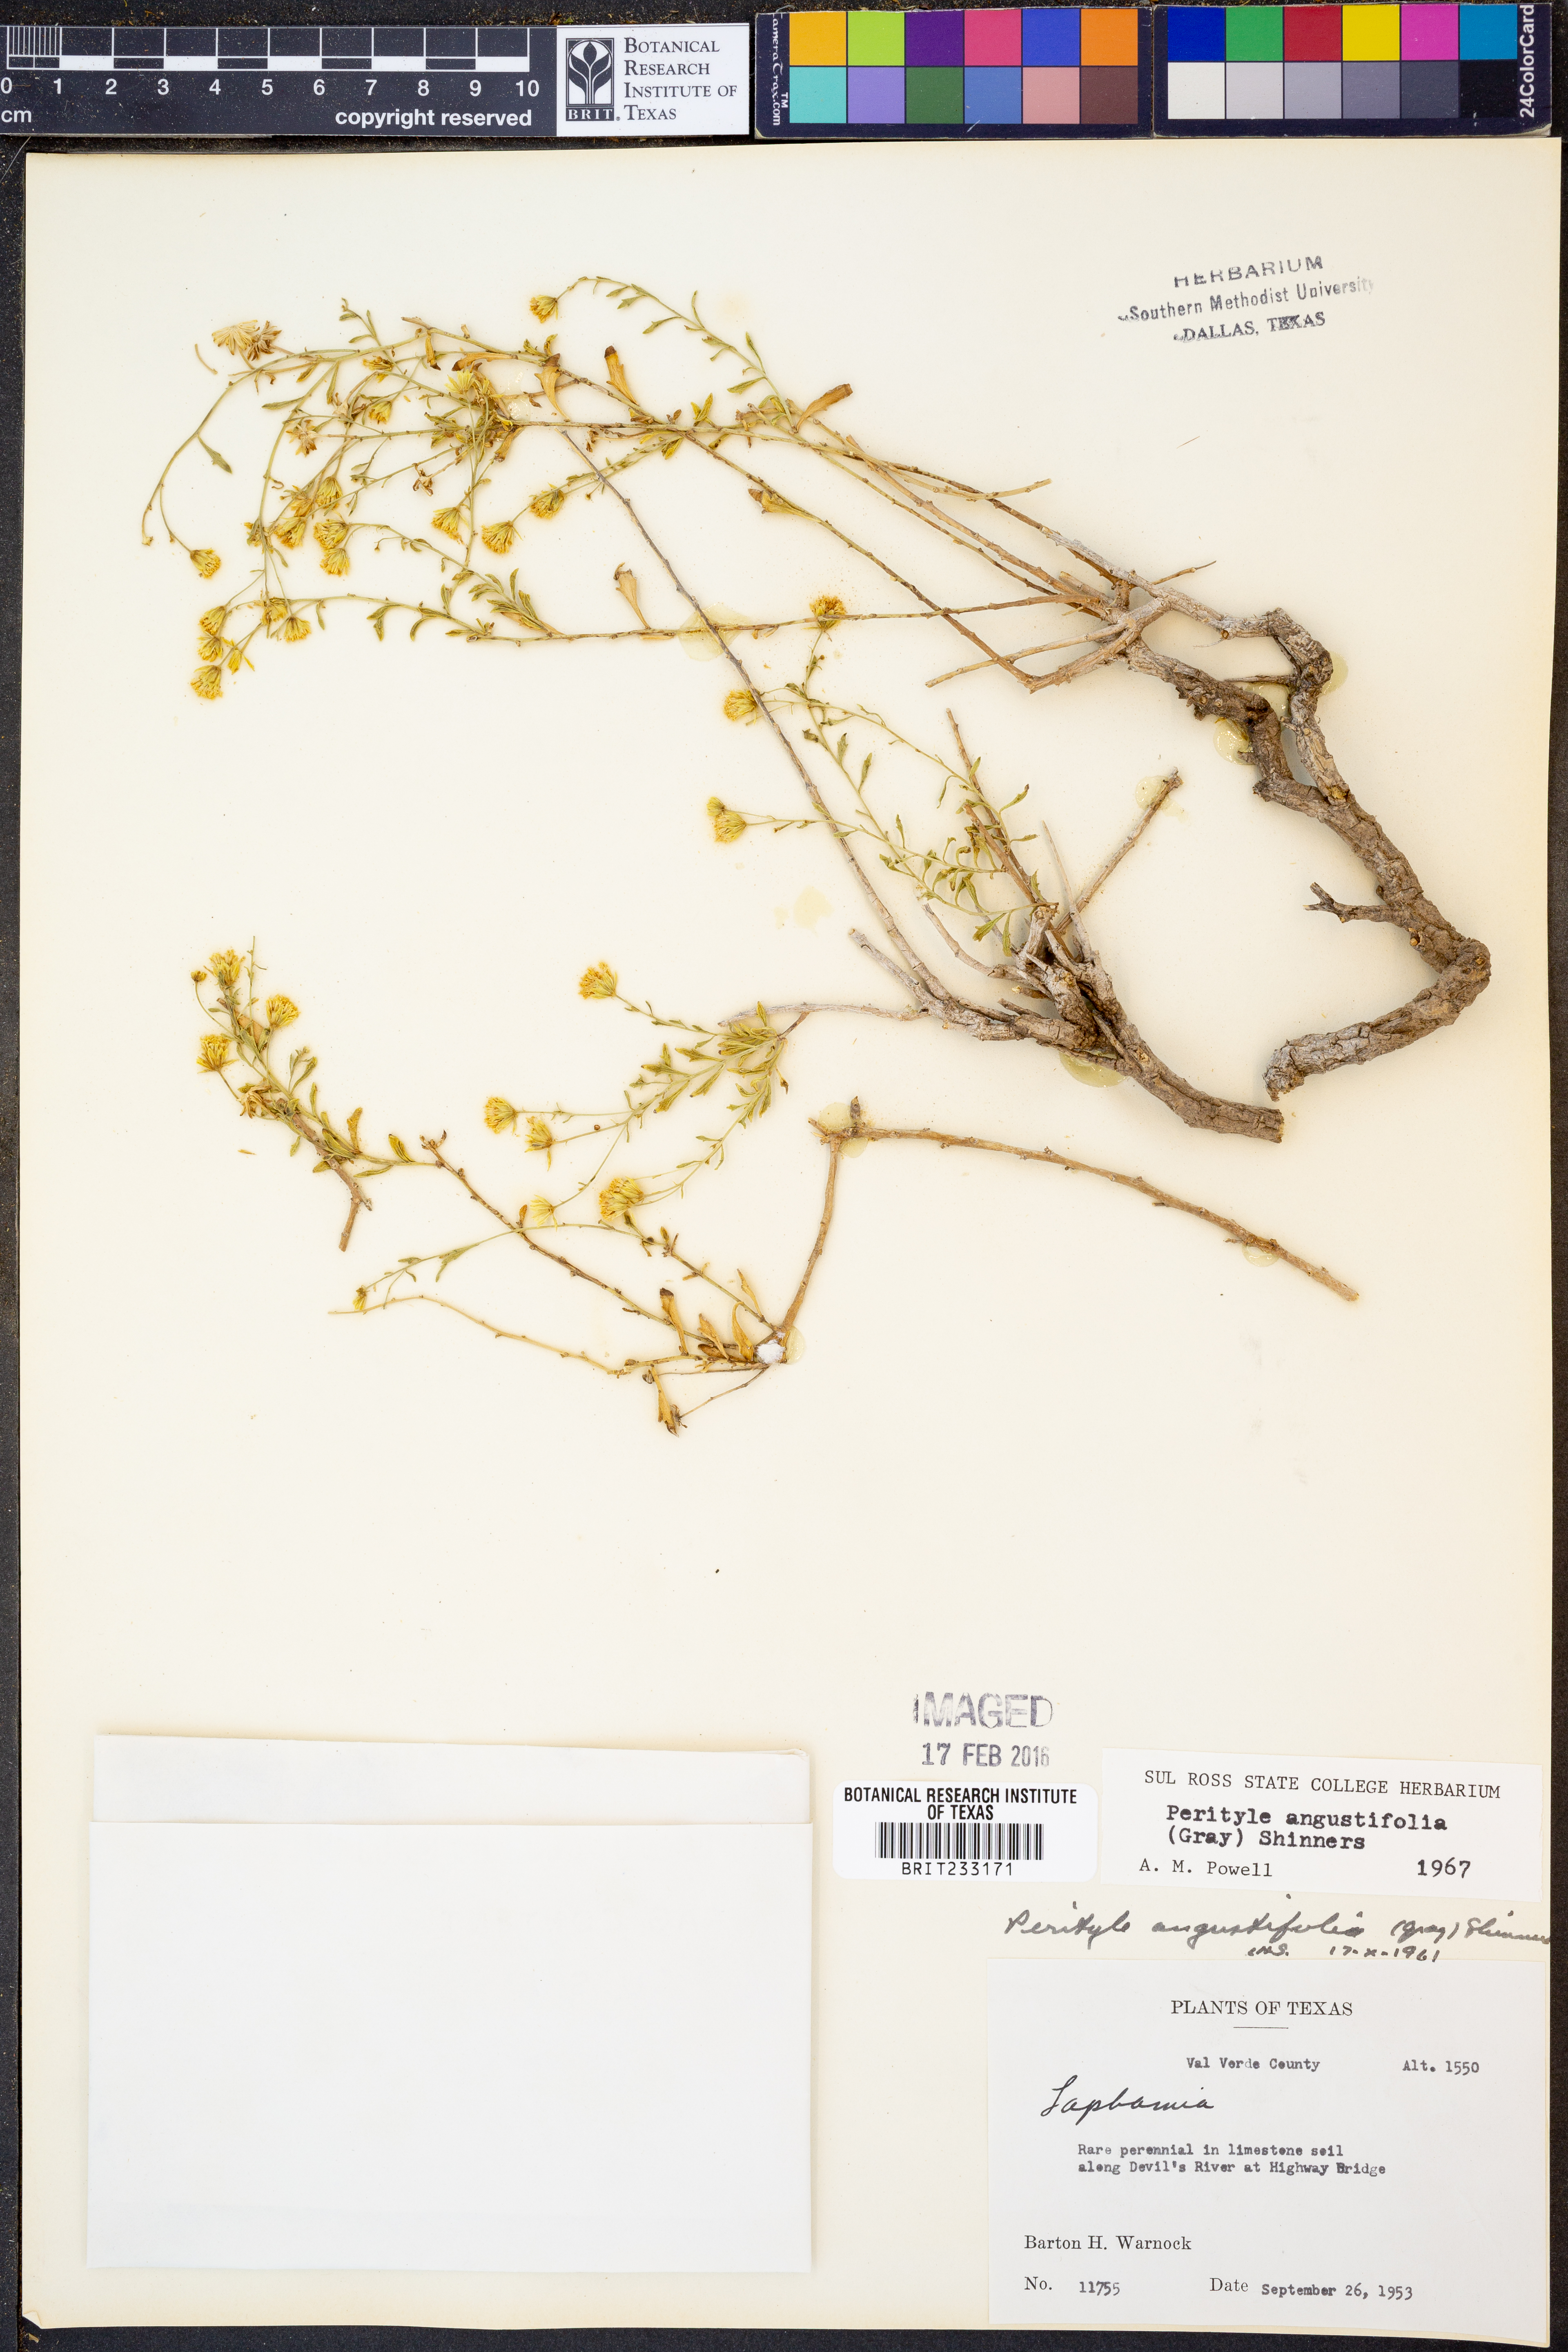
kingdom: Plantae
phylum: Tracheophyta
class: Magnoliopsida
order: Asterales
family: Asteraceae
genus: Laphamia
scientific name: Laphamia angustifolia
